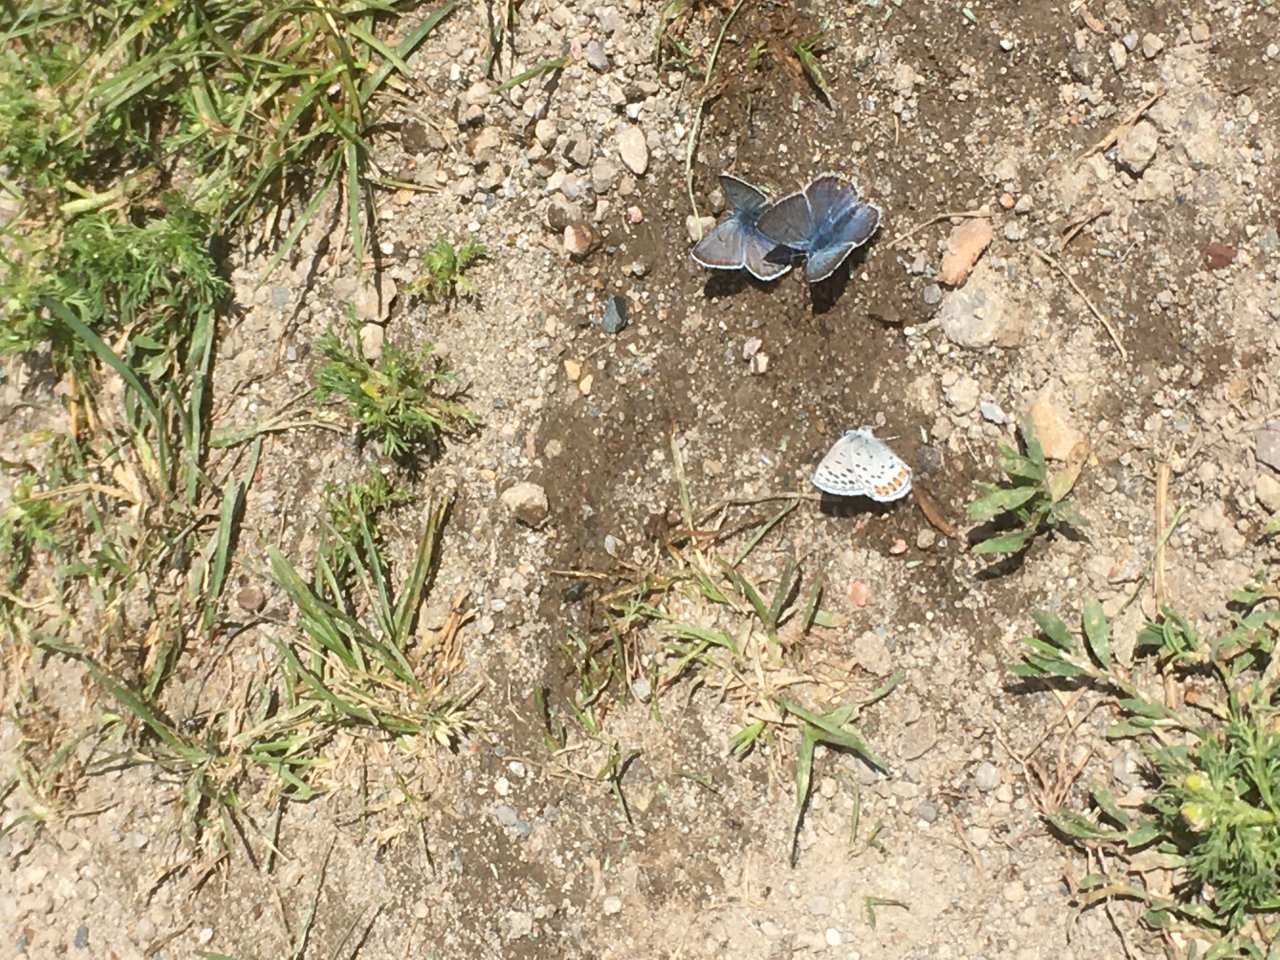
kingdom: Animalia
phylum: Arthropoda
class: Insecta
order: Lepidoptera
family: Lycaenidae
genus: Plebejus
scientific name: Plebejus acmon
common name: Acmon Blue
